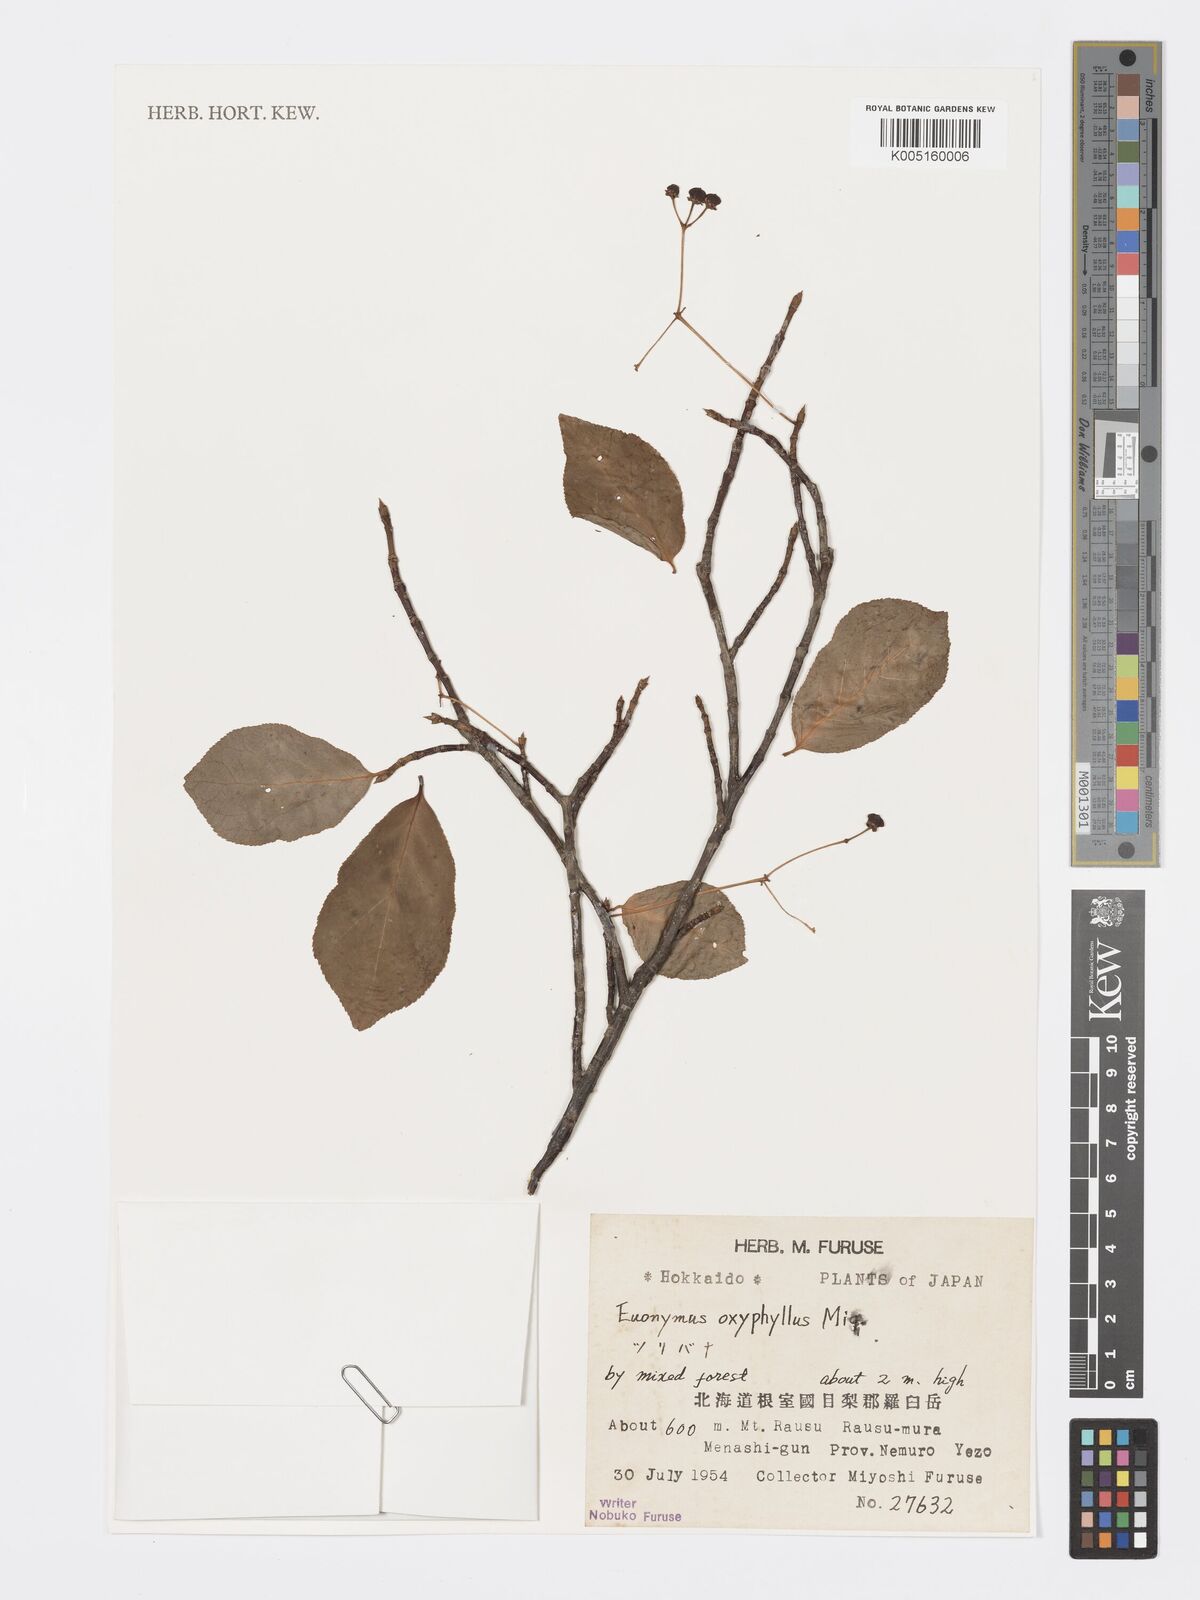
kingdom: Plantae
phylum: Tracheophyta
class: Magnoliopsida
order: Celastrales
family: Celastraceae
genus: Euonymus
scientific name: Euonymus oxyphyllus
